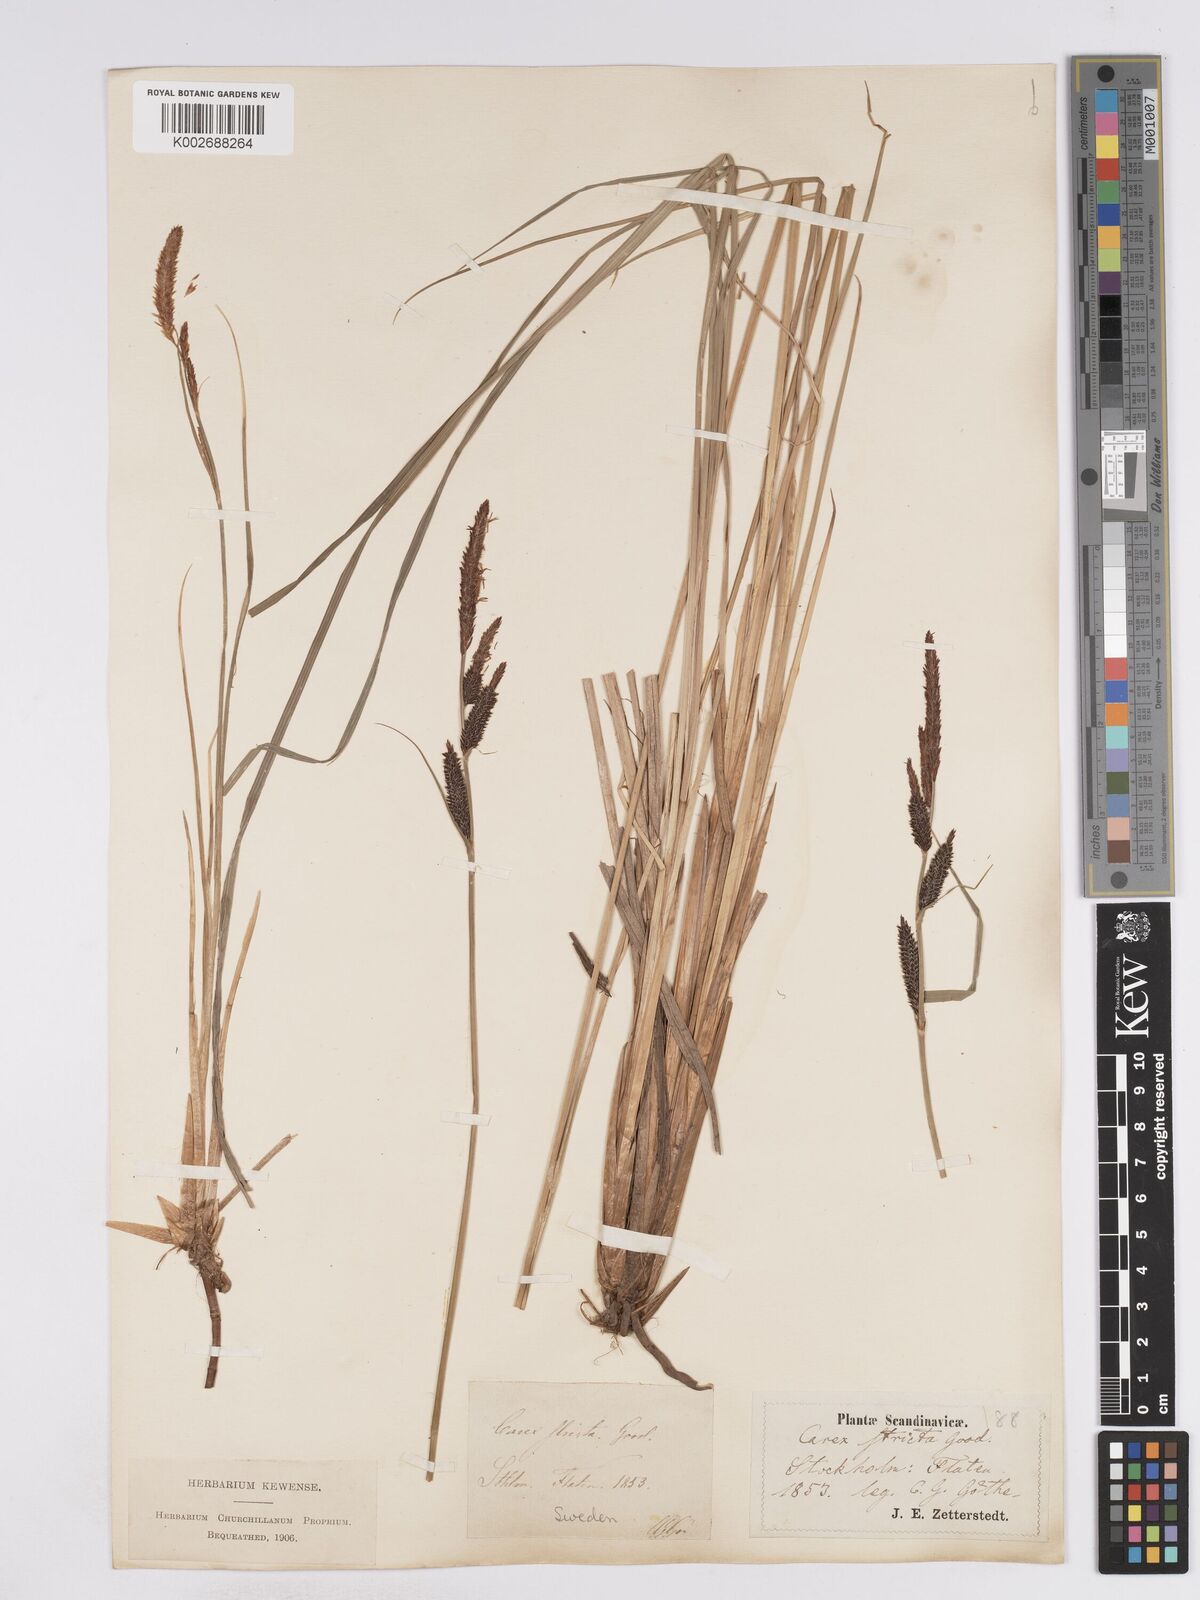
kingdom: Plantae
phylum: Tracheophyta
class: Liliopsida
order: Poales
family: Cyperaceae
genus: Carex
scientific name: Carex elata
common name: Tufted sedge
